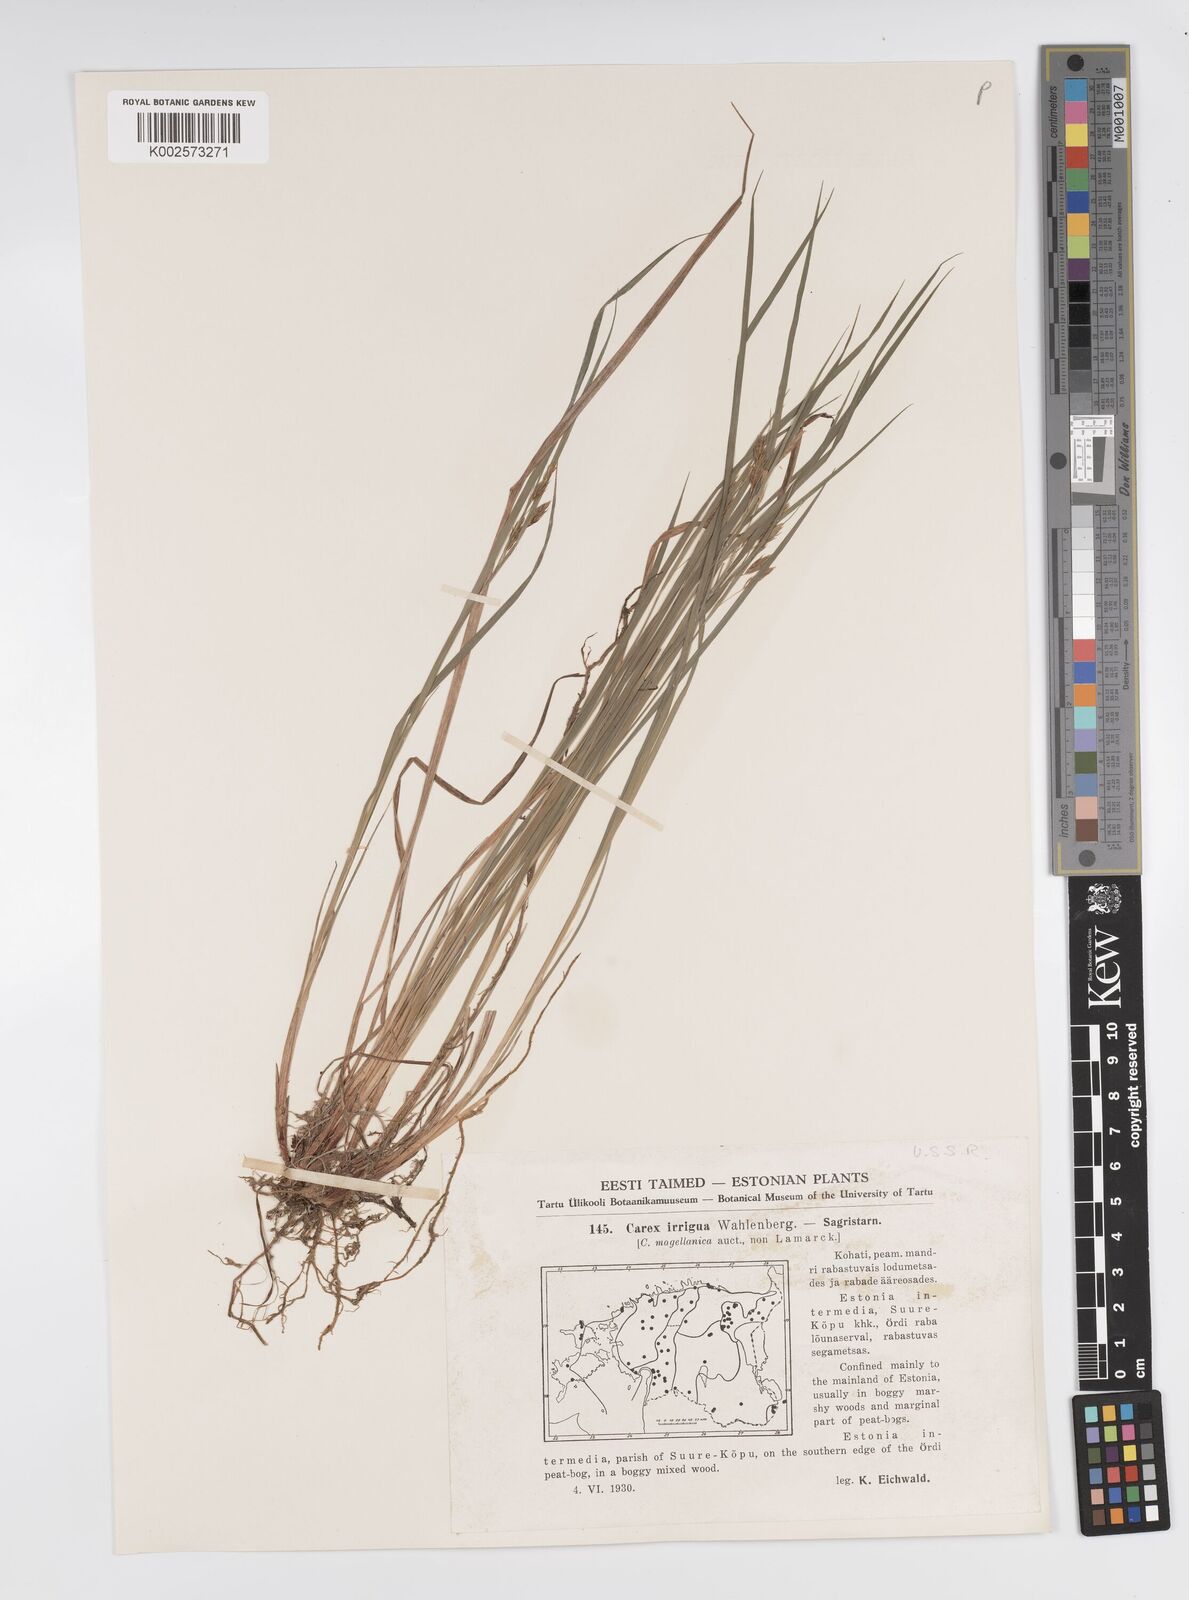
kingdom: Plantae
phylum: Tracheophyta
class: Liliopsida
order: Poales
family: Cyperaceae
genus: Carex
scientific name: Carex magellanica
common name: Bog sedge
